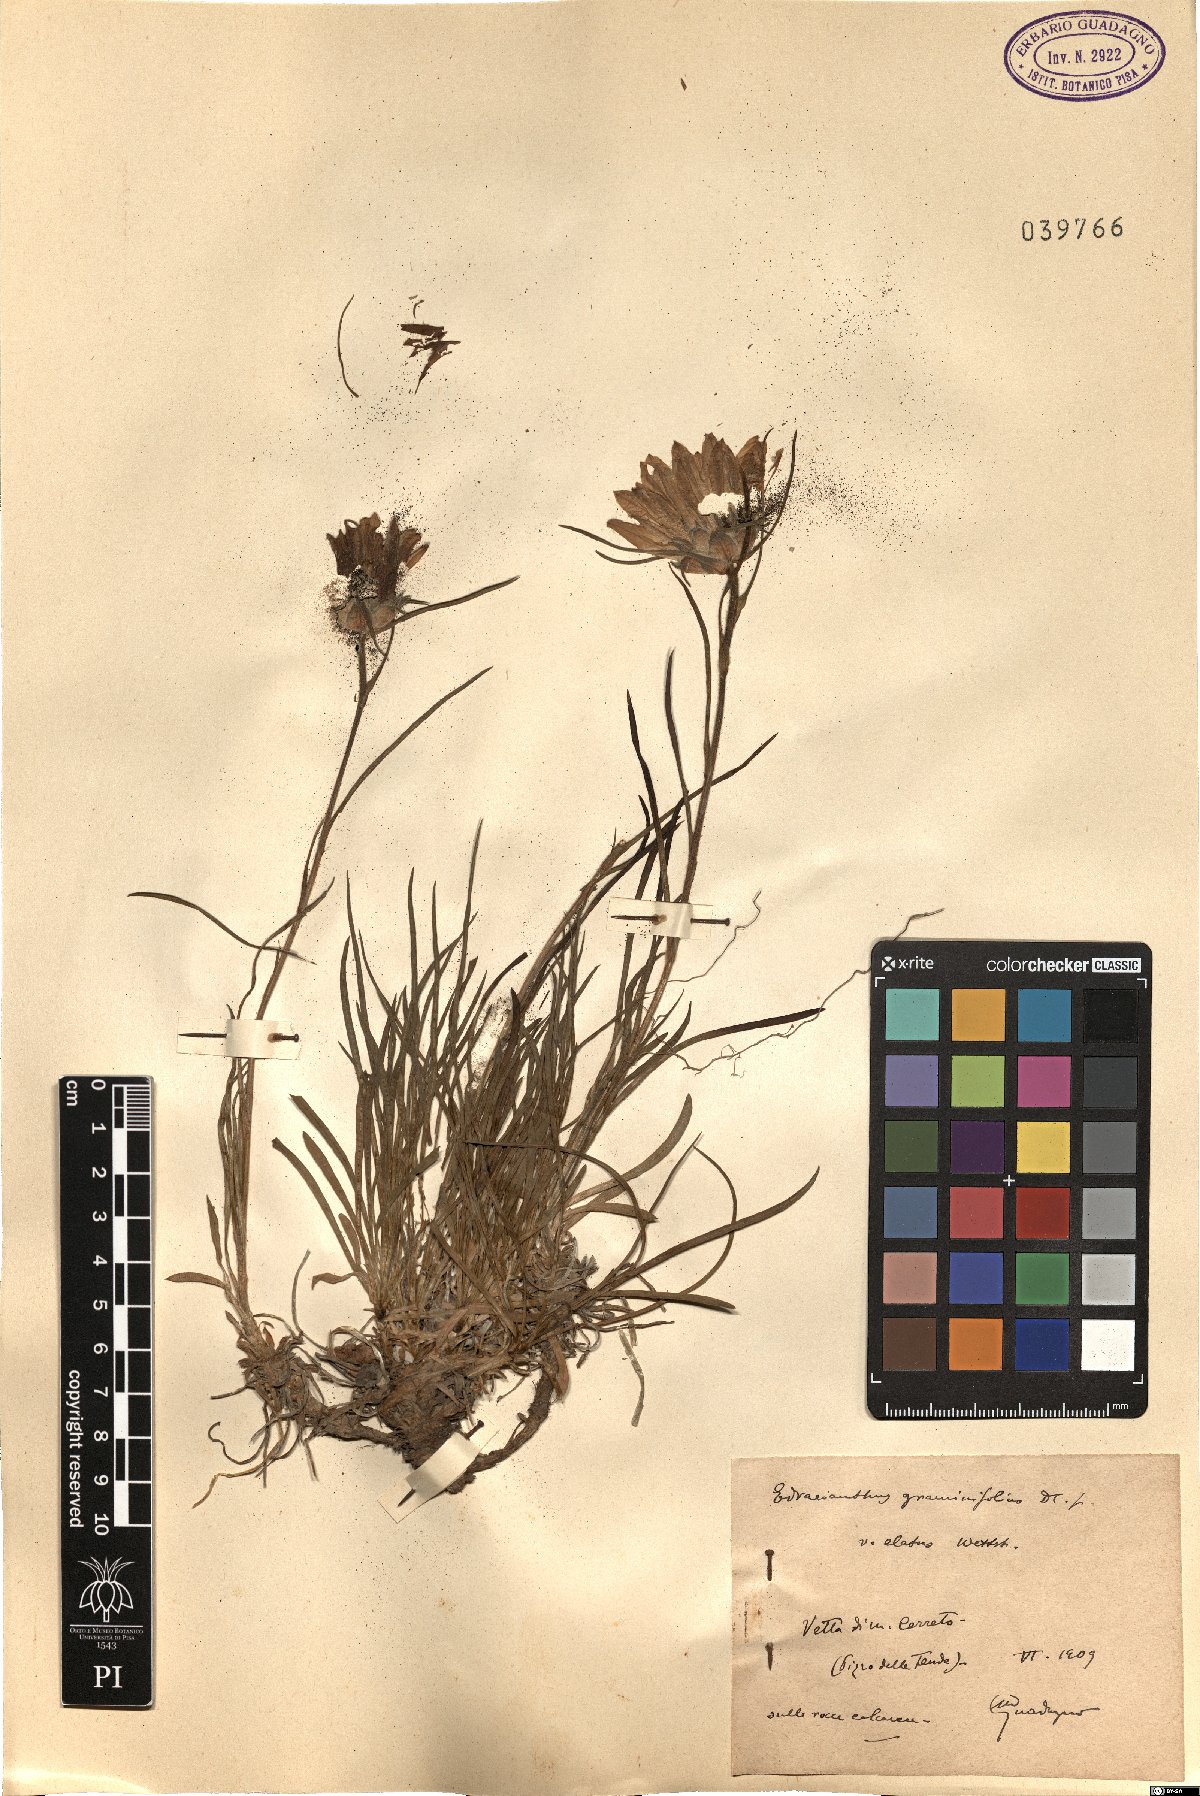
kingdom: Plantae
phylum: Tracheophyta
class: Magnoliopsida
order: Asterales
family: Campanulaceae
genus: Edraianthus
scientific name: Edraianthus graminifolius
